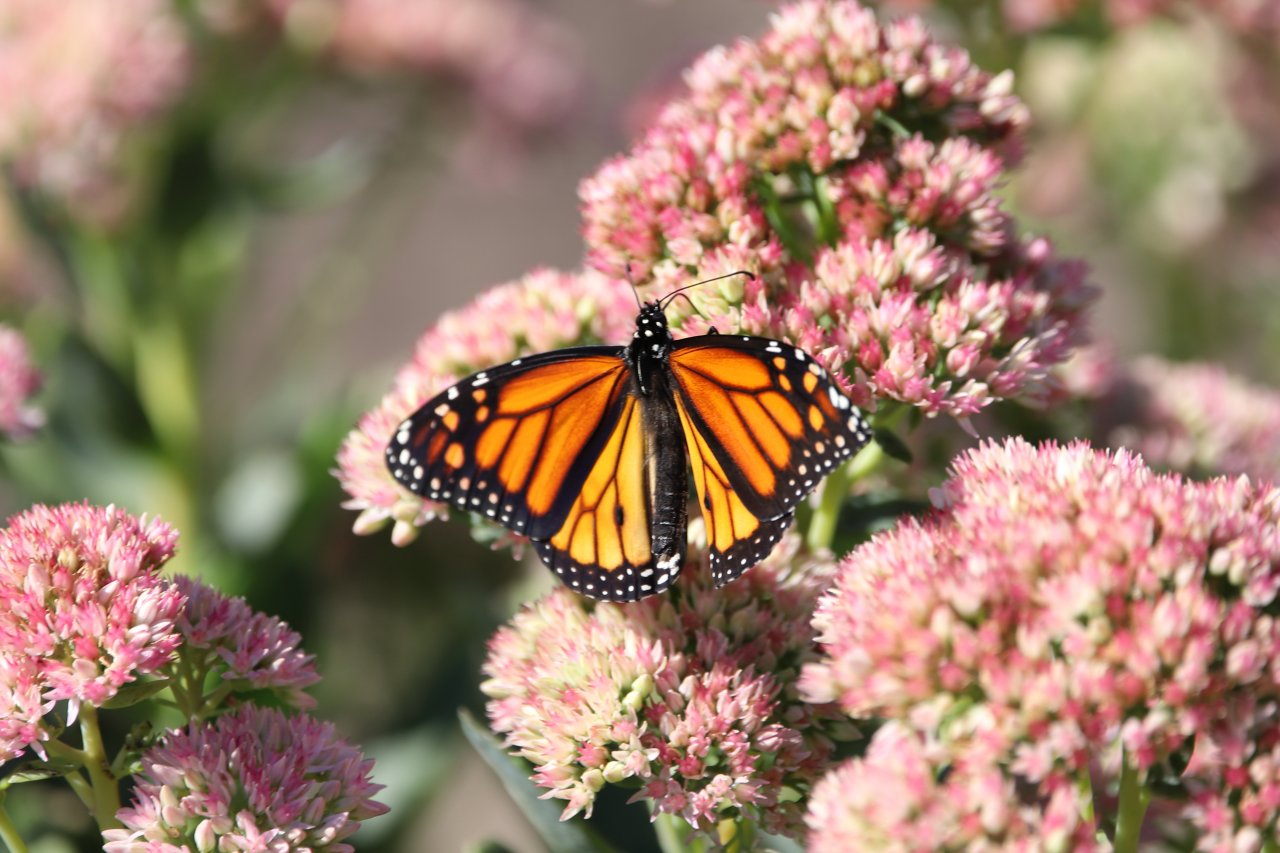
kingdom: Animalia
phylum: Arthropoda
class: Insecta
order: Lepidoptera
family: Nymphalidae
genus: Danaus
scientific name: Danaus plexippus
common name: Monarch
